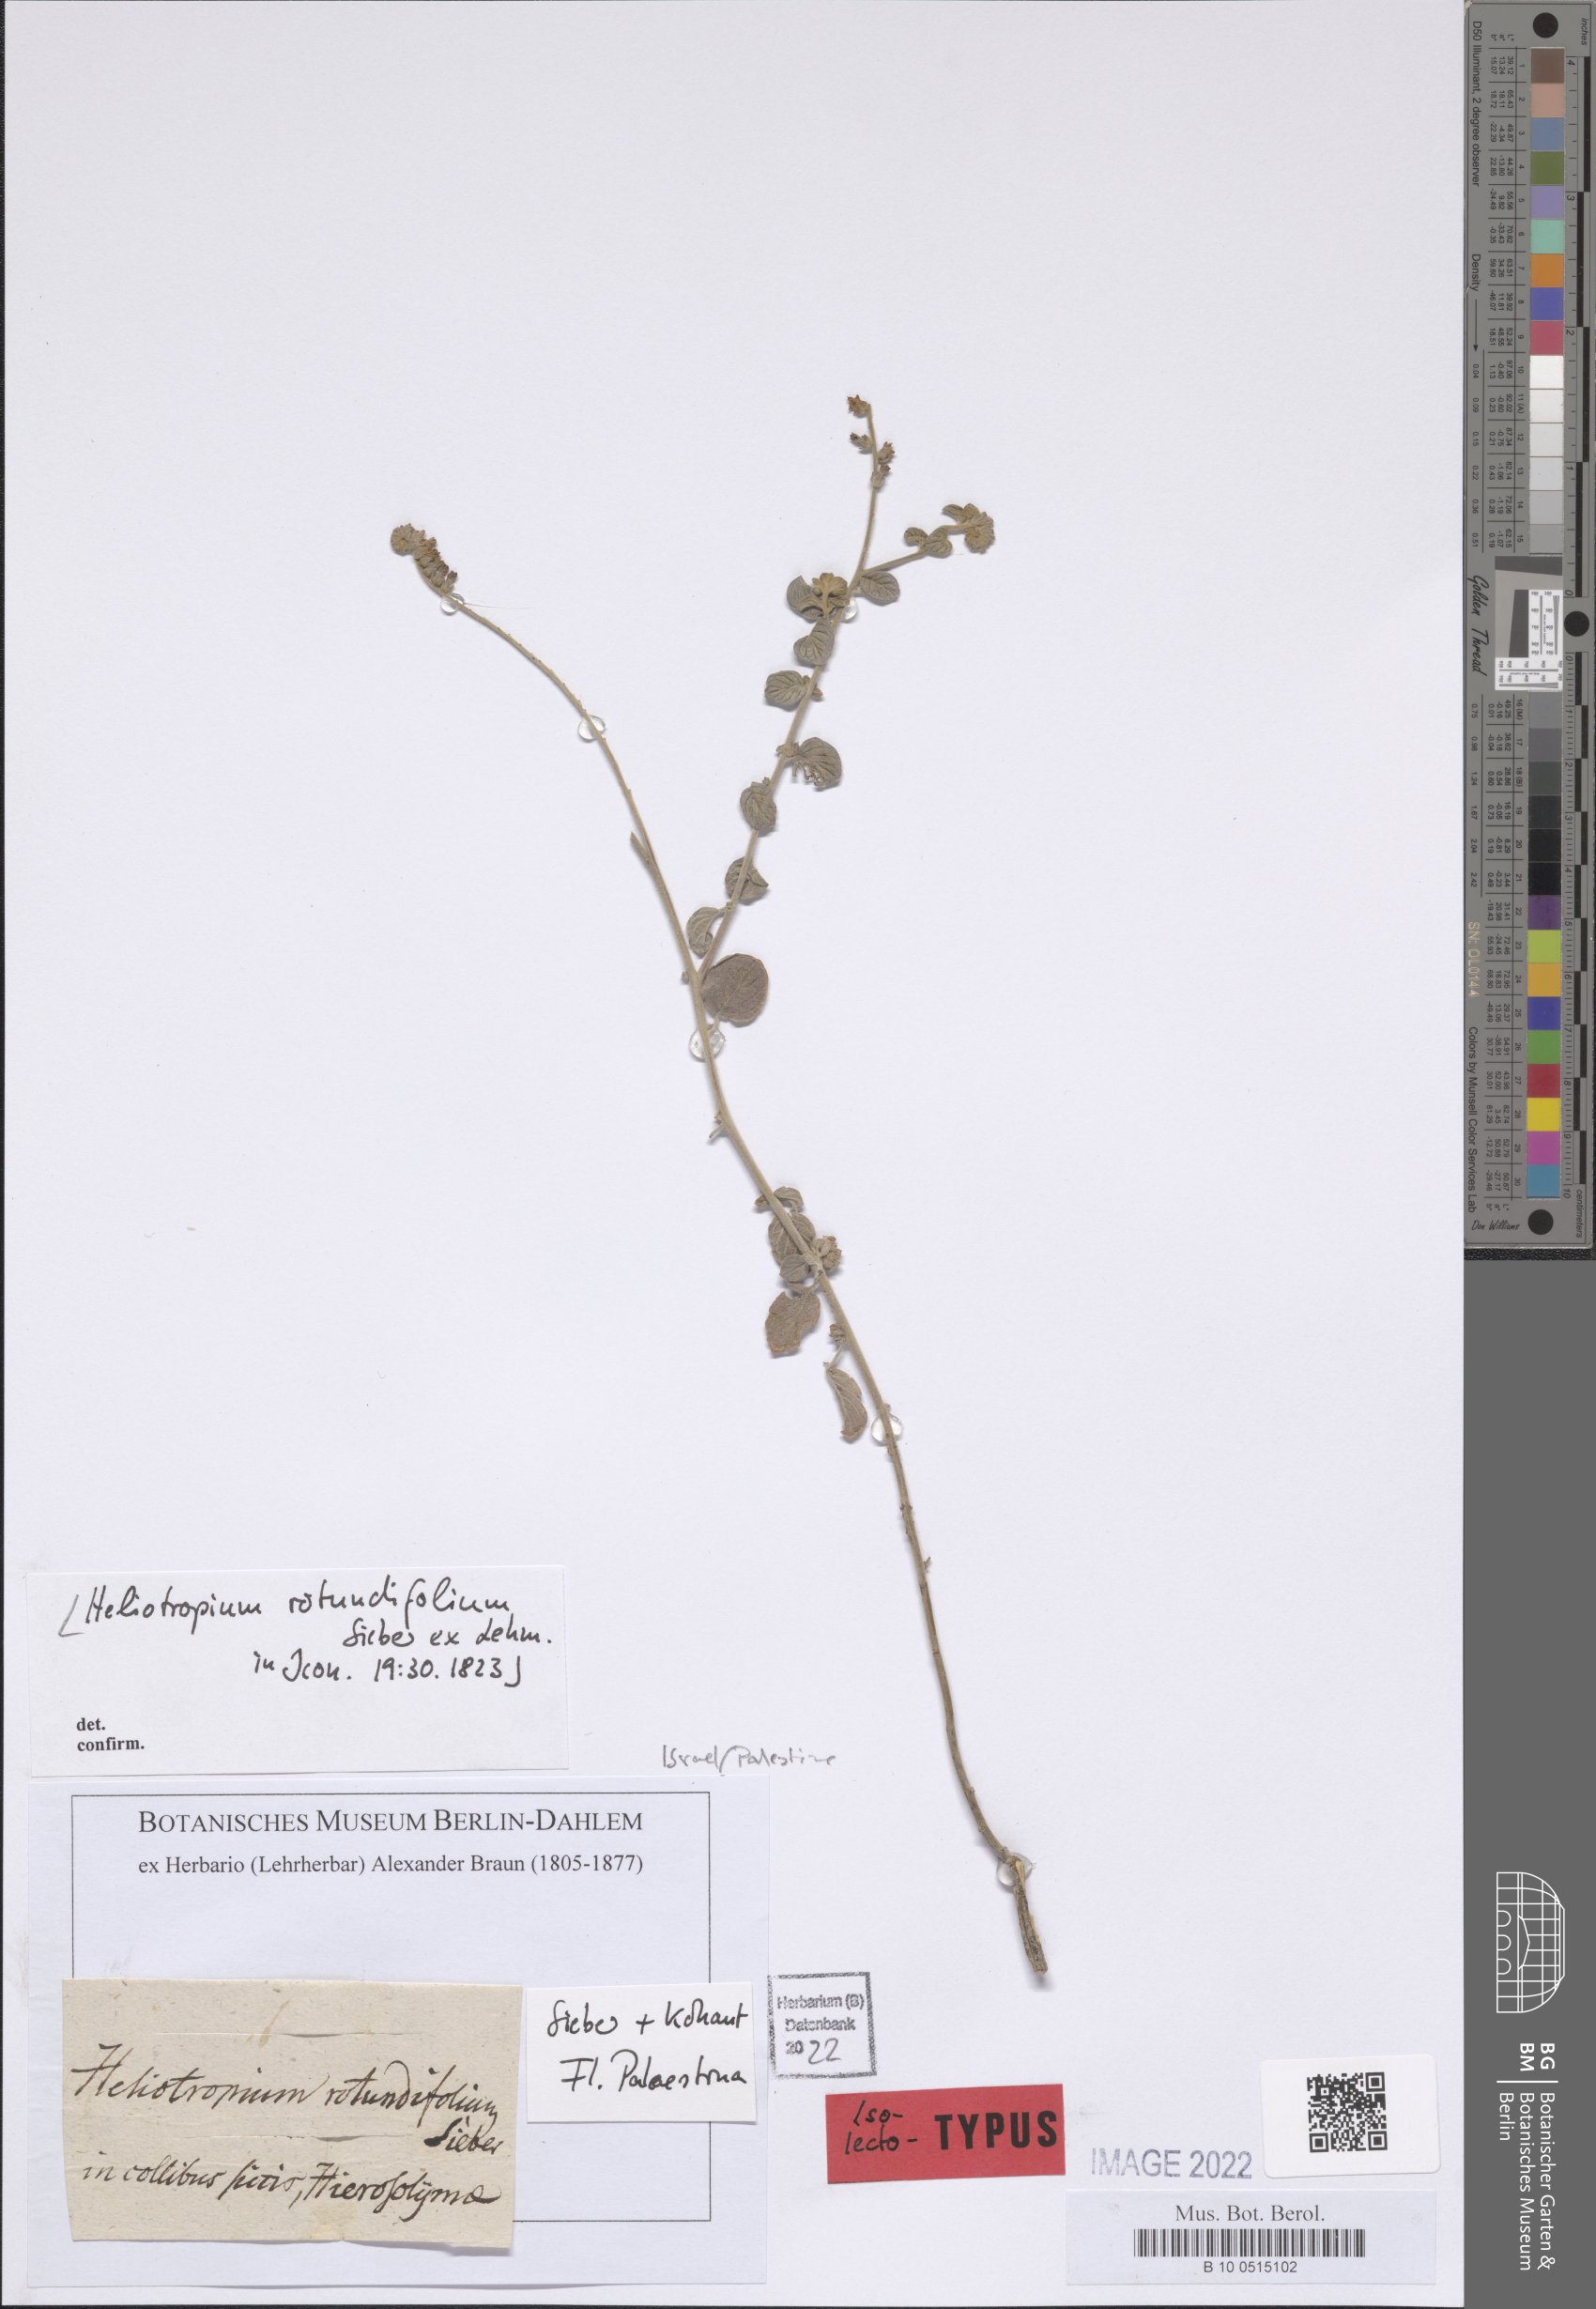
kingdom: Plantae
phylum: Tracheophyta
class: Magnoliopsida
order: Boraginales
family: Heliotropiaceae
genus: Heliotropium
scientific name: Heliotropium rotundifolium
